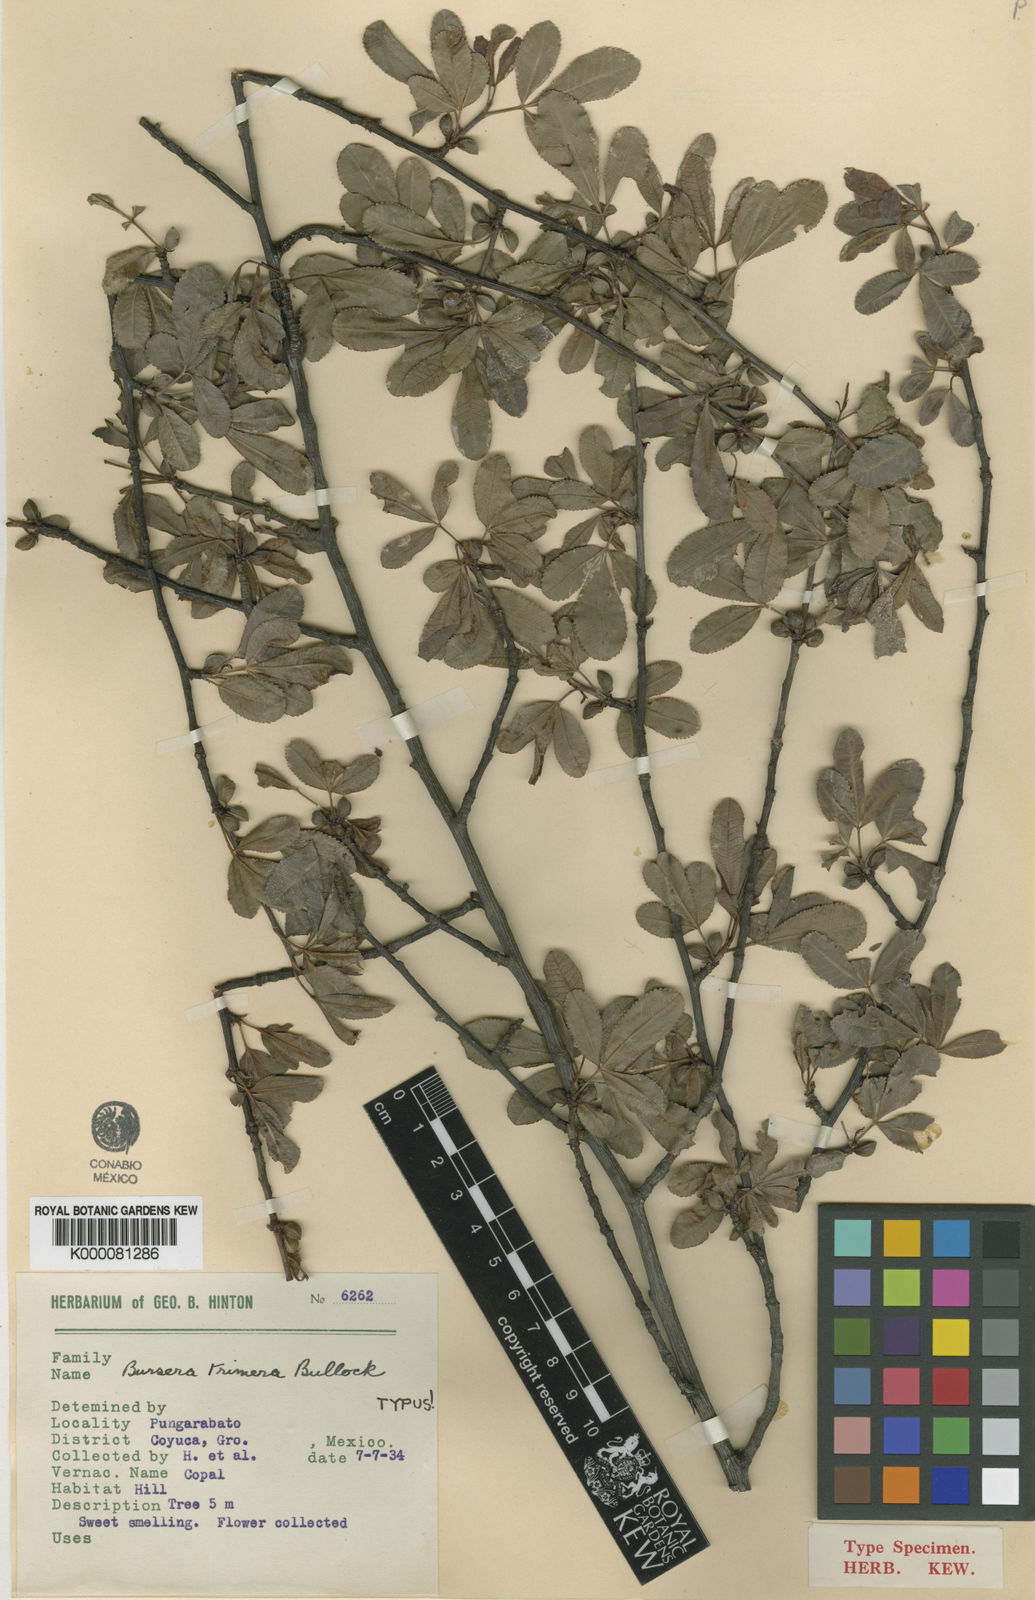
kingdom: Plantae
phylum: Tracheophyta
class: Magnoliopsida
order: Sapindales
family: Burseraceae
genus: Bursera
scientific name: Bursera trimera
